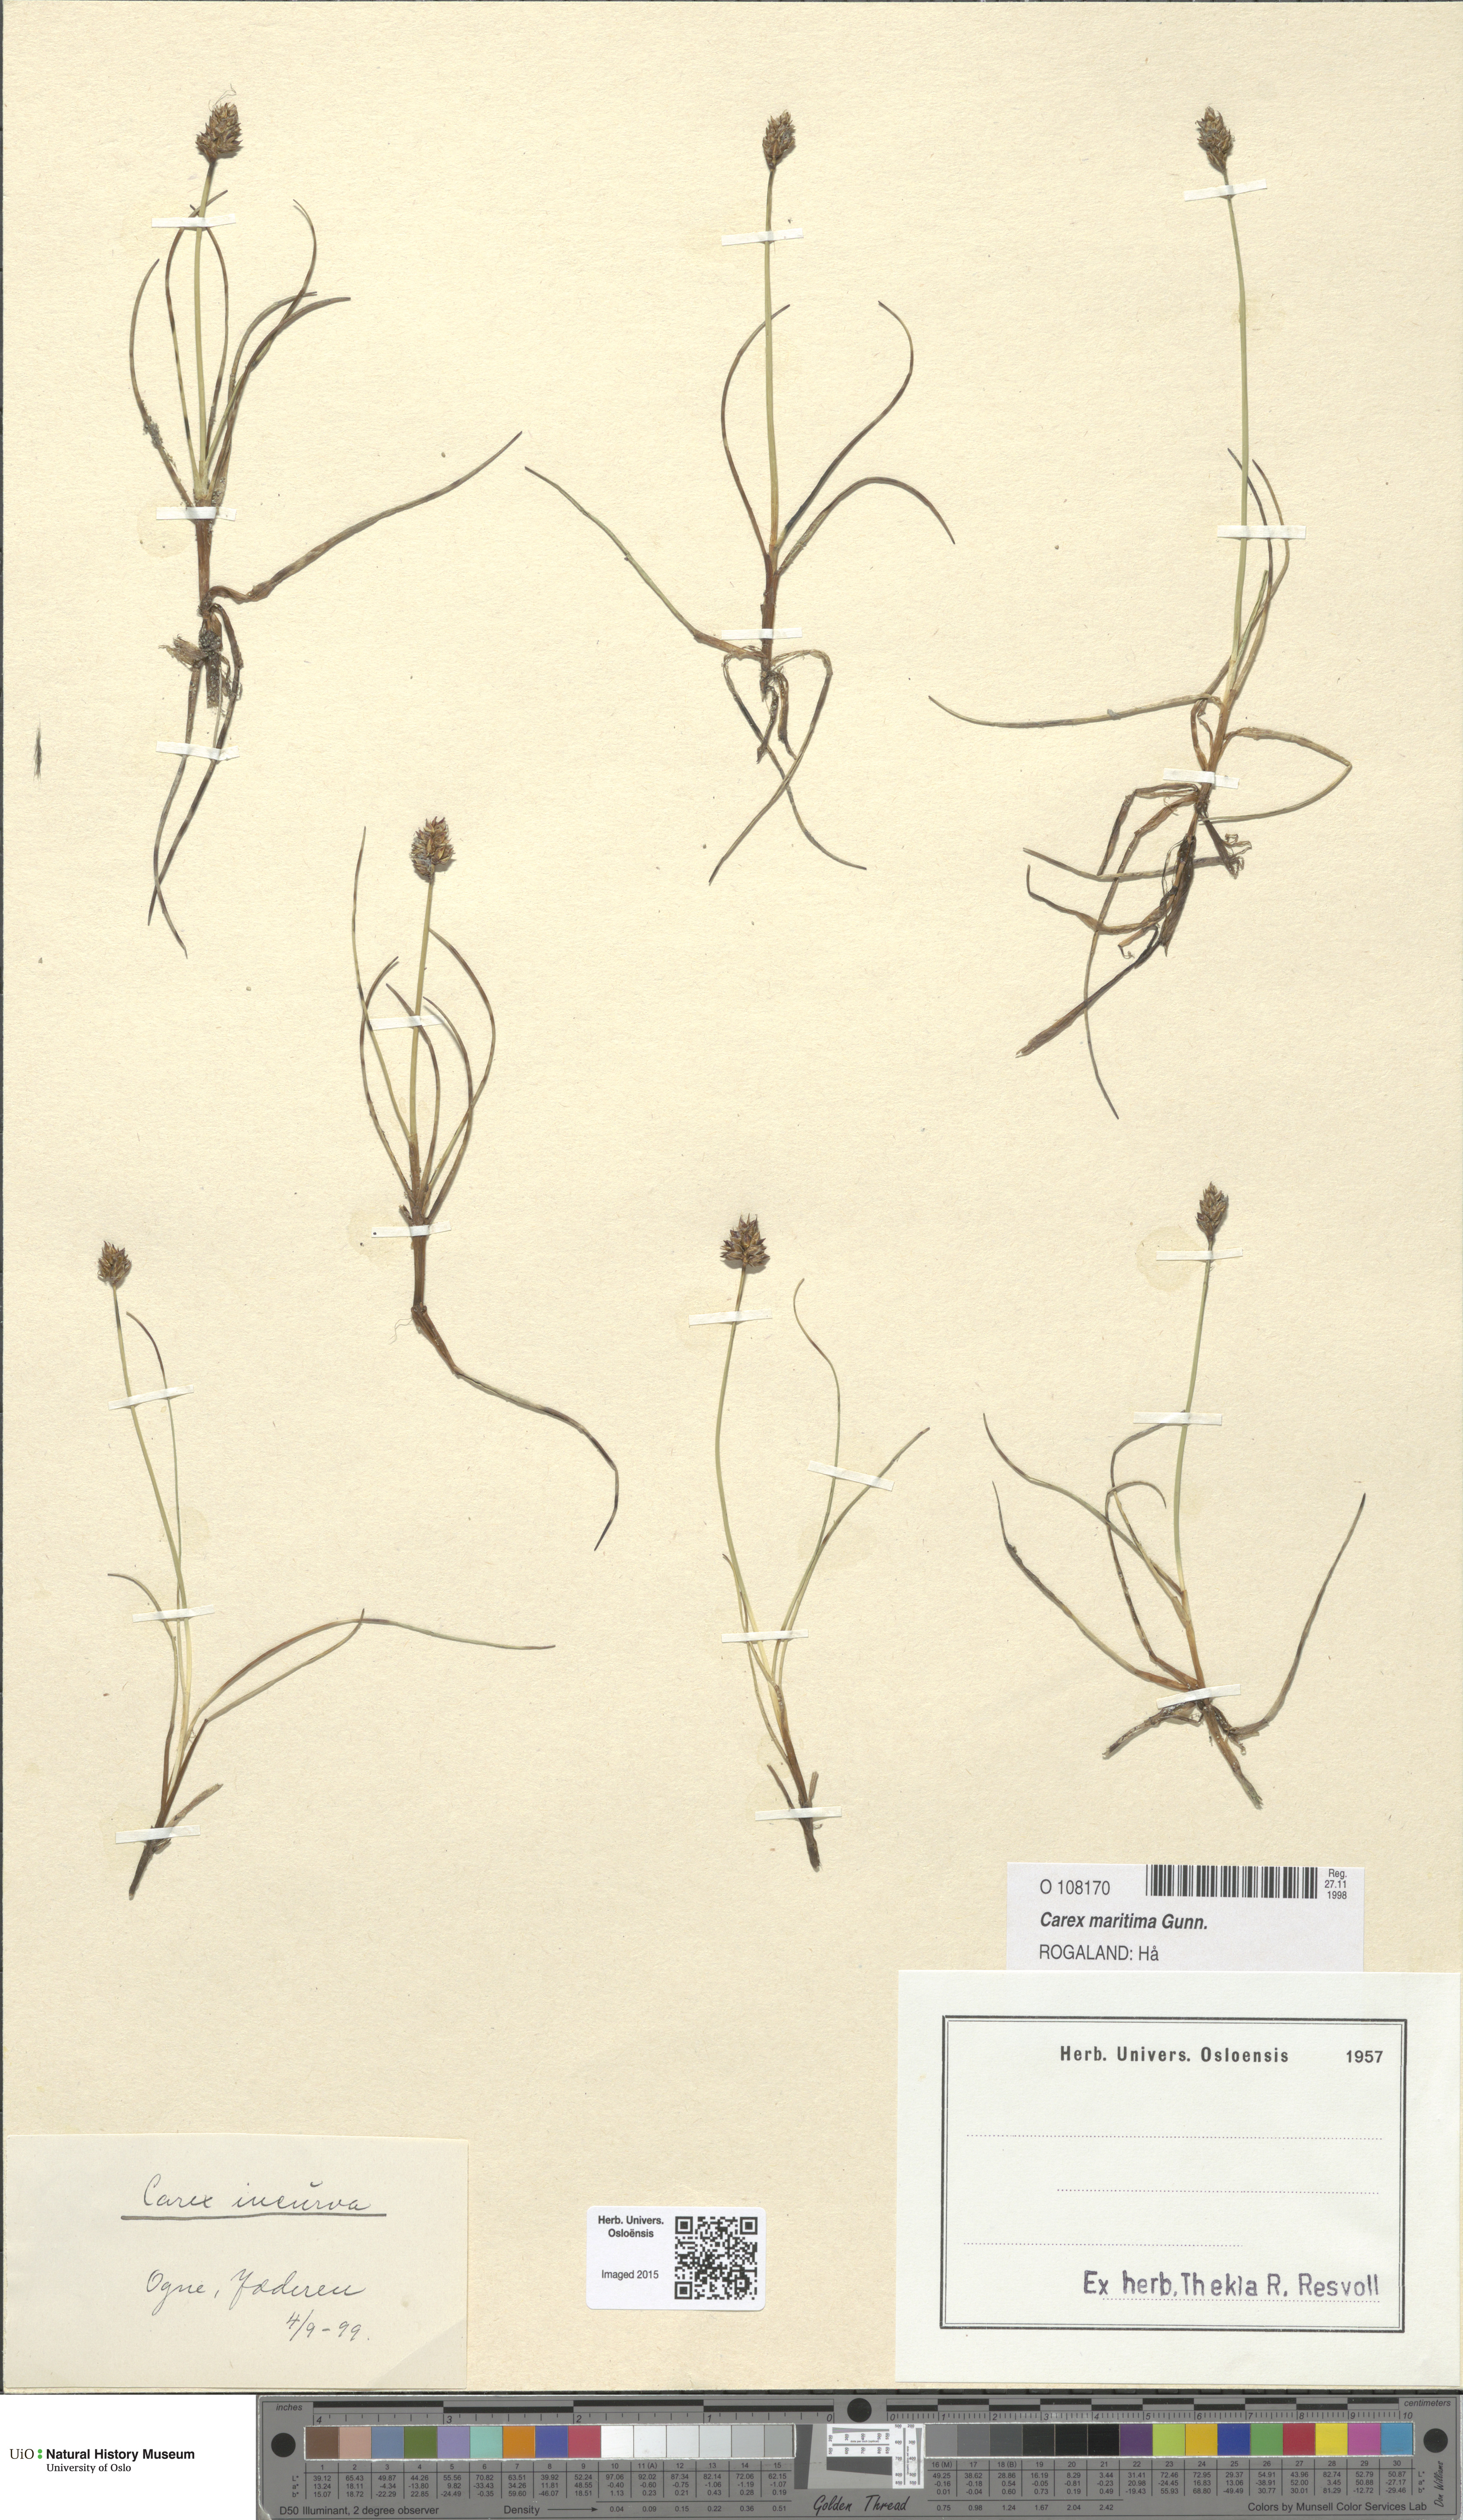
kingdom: Plantae
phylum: Tracheophyta
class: Liliopsida
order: Poales
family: Cyperaceae
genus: Carex
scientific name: Carex maritima
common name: Curved sedge
